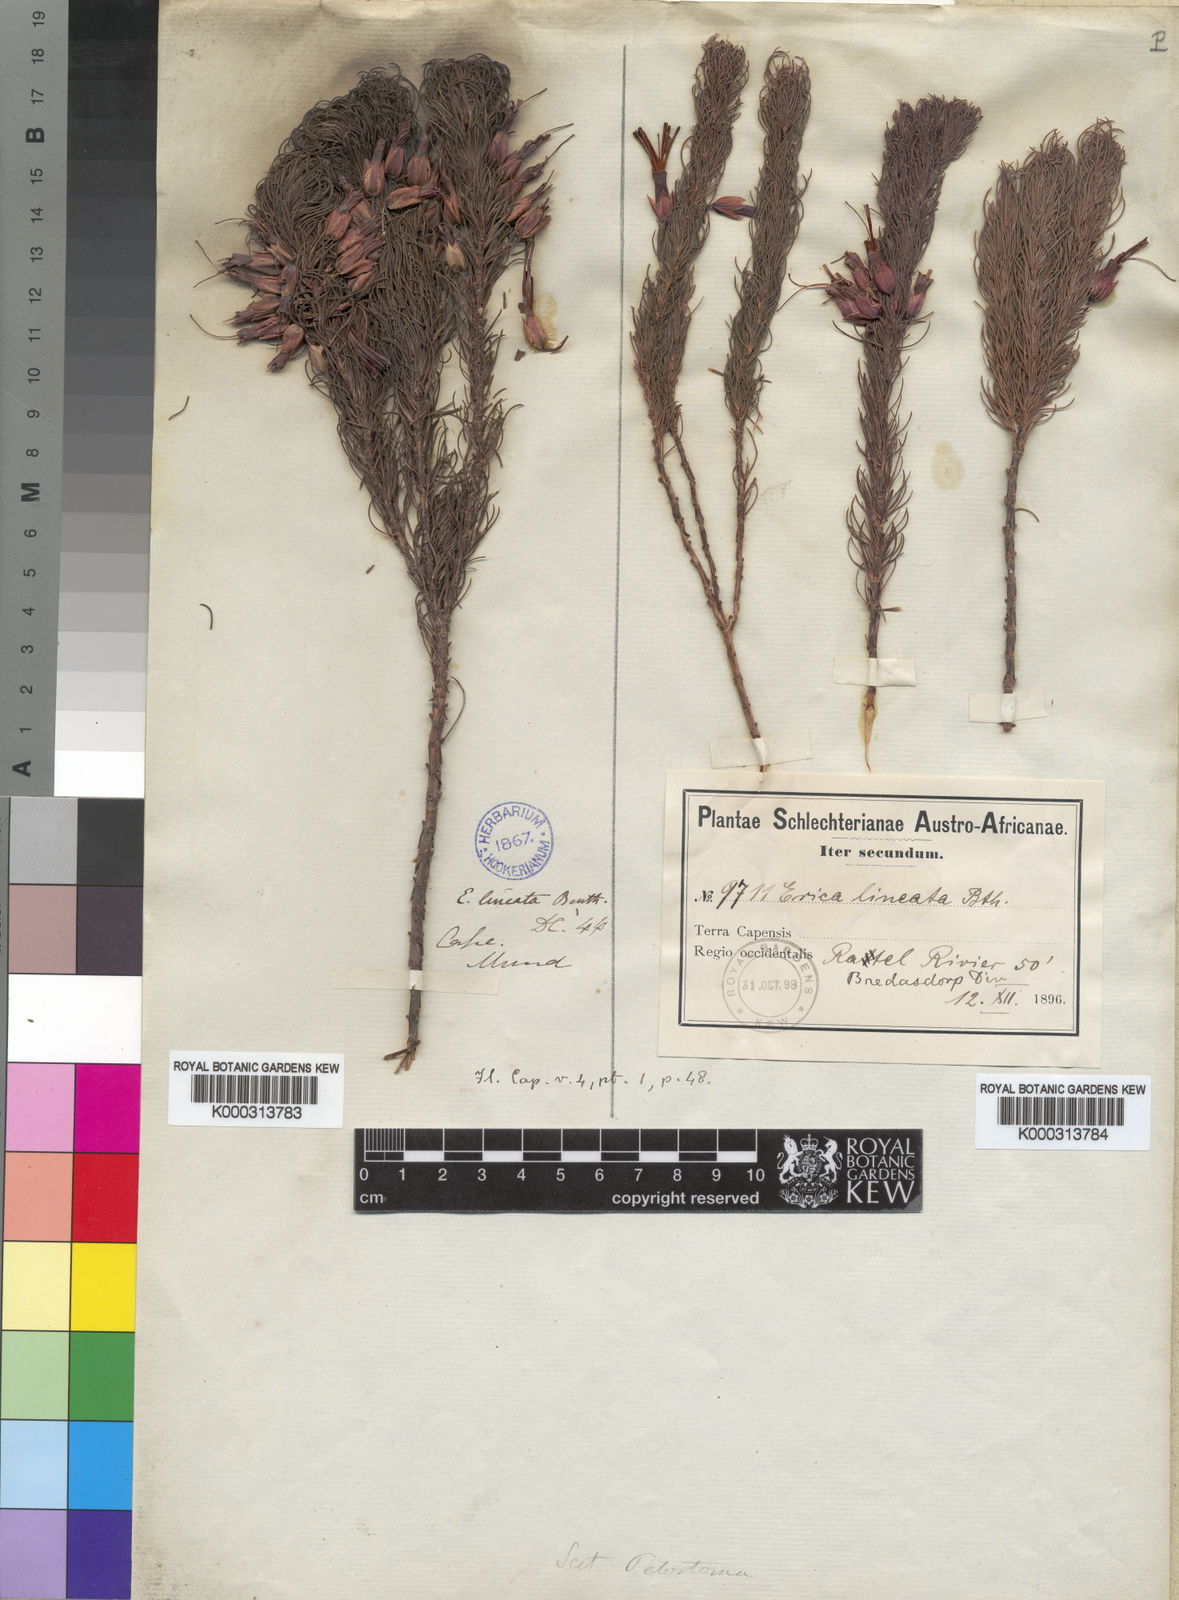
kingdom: Plantae
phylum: Tracheophyta
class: Magnoliopsida
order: Ericales
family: Ericaceae
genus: Erica
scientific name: Erica plukenetii
